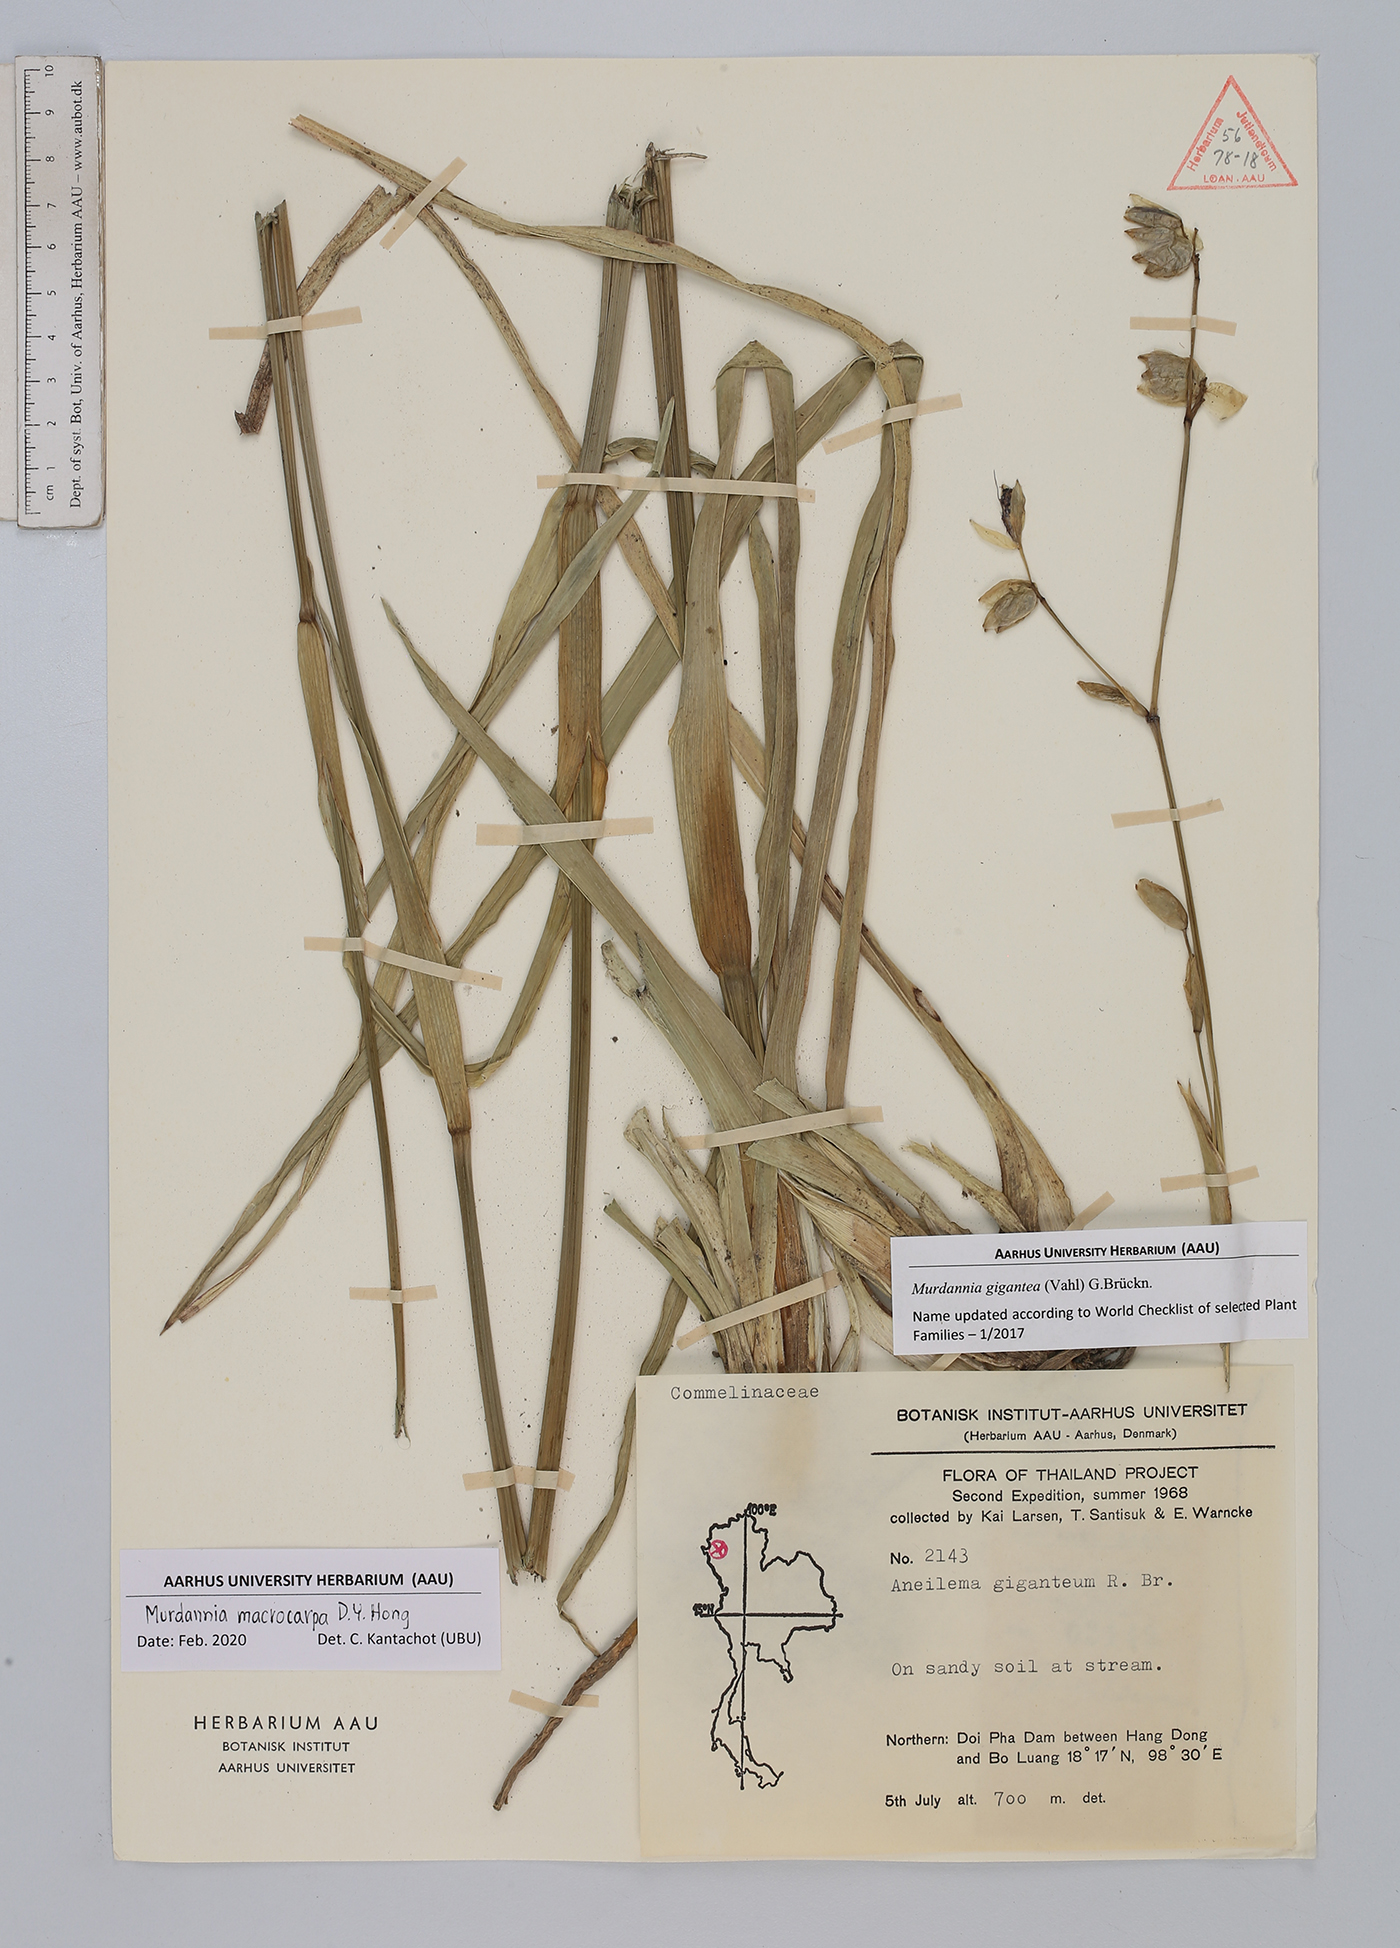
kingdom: Plantae
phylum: Tracheophyta
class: Liliopsida
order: Commelinales
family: Commelinaceae
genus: Murdannia
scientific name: Murdannia macrocarpa
